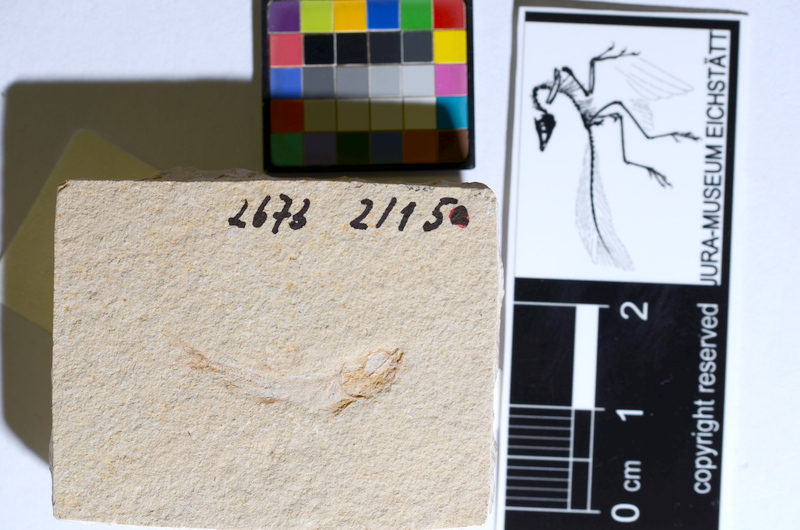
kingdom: Animalia
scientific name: Animalia
